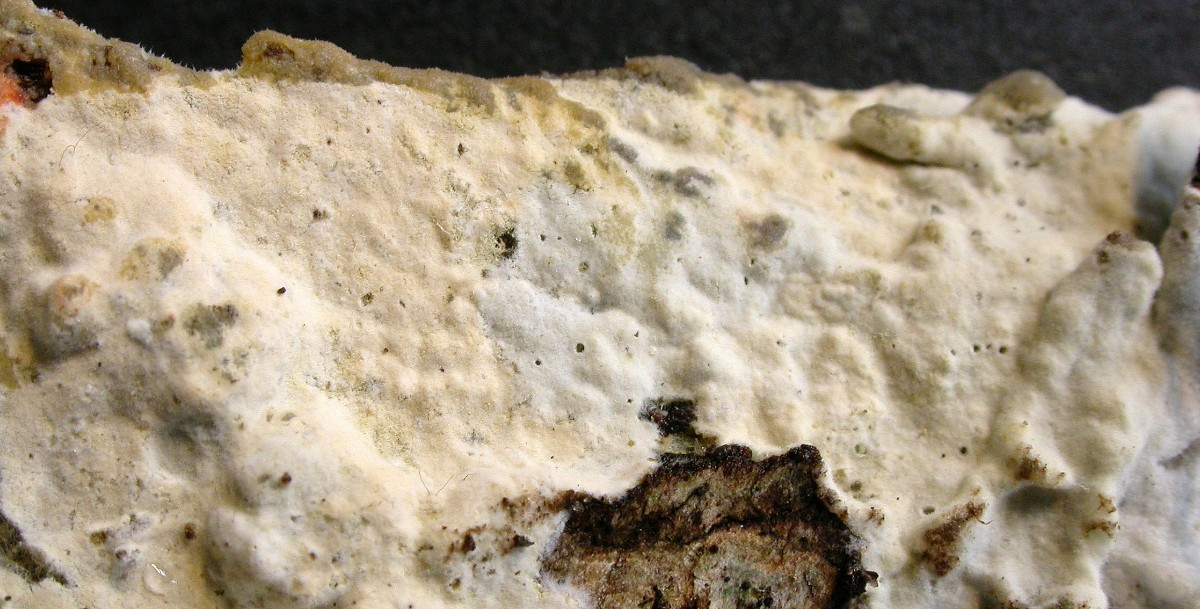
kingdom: Fungi
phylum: Basidiomycota
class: Agaricomycetes
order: Polyporales
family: Hyphodermataceae
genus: Hyphoderma
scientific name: Hyphoderma setigerum
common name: håret kalkskind
